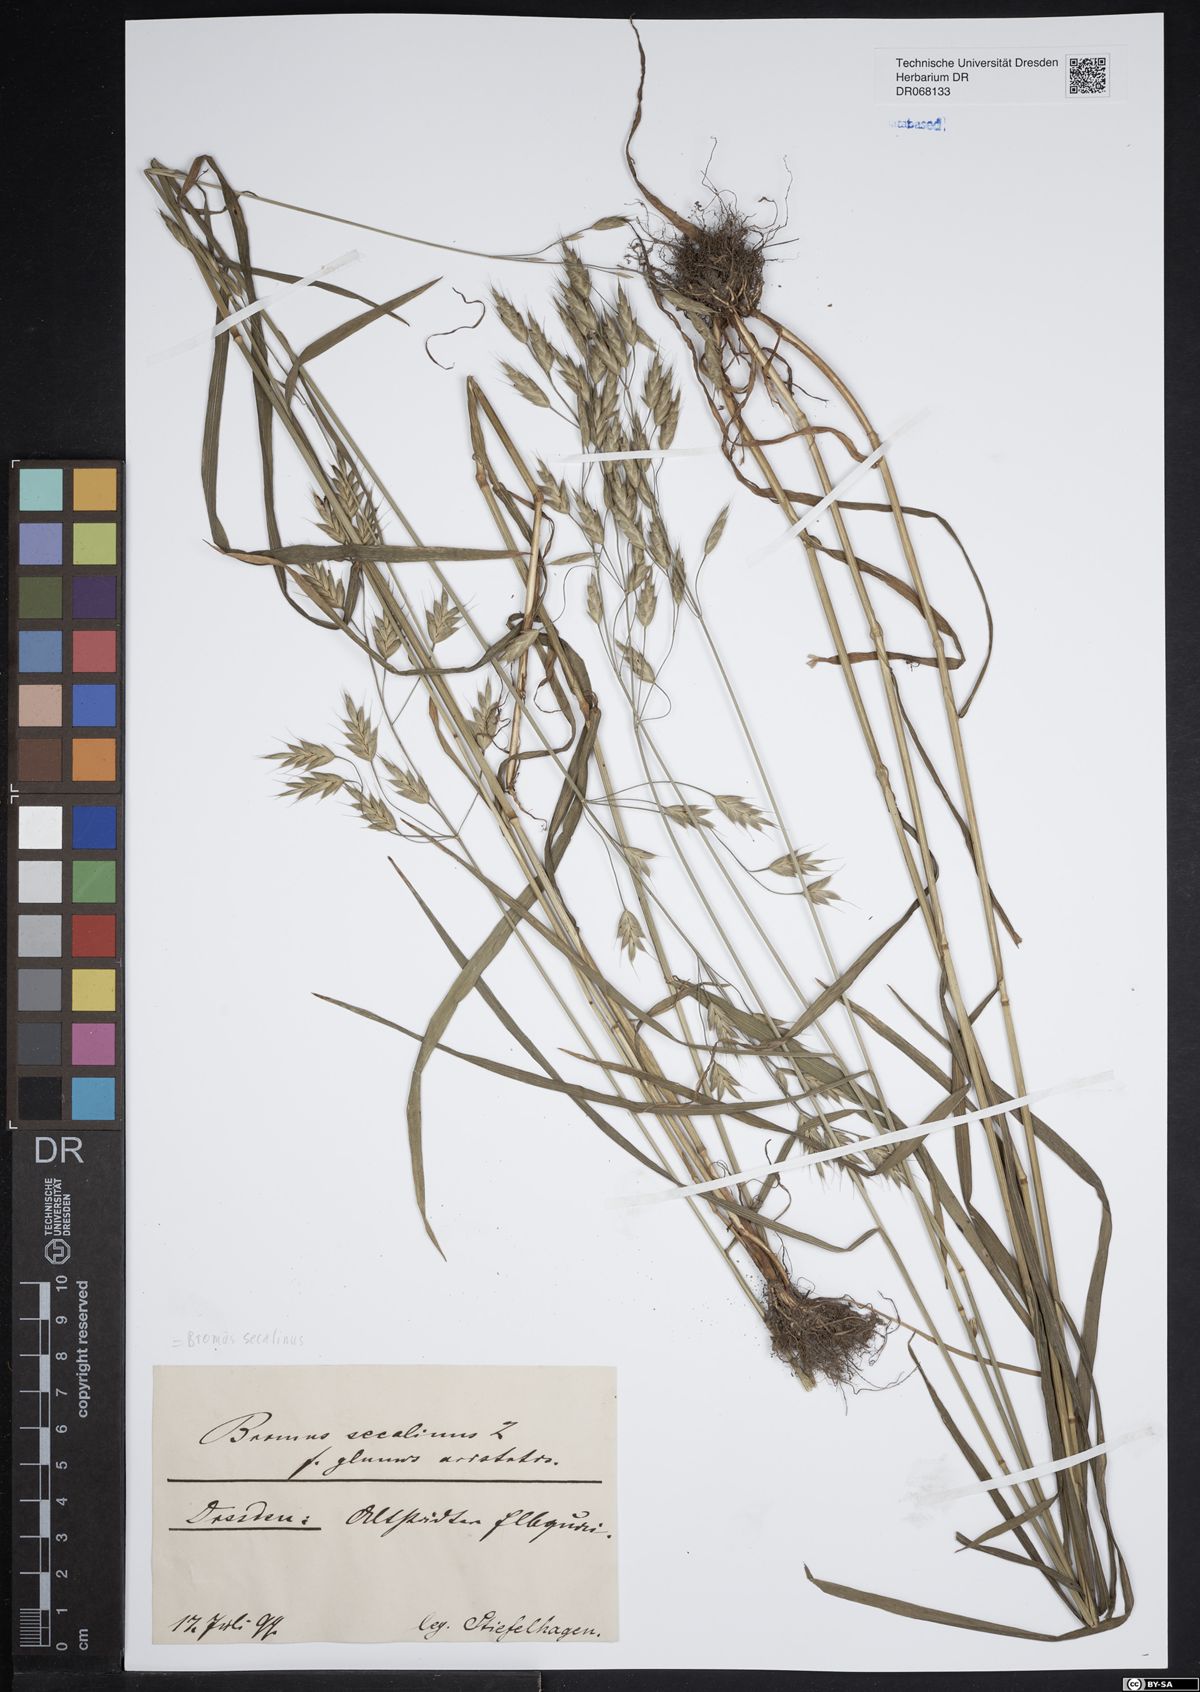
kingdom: Plantae
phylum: Tracheophyta
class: Liliopsida
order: Poales
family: Poaceae
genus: Bromus
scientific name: Bromus secalinus
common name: Rye brome
